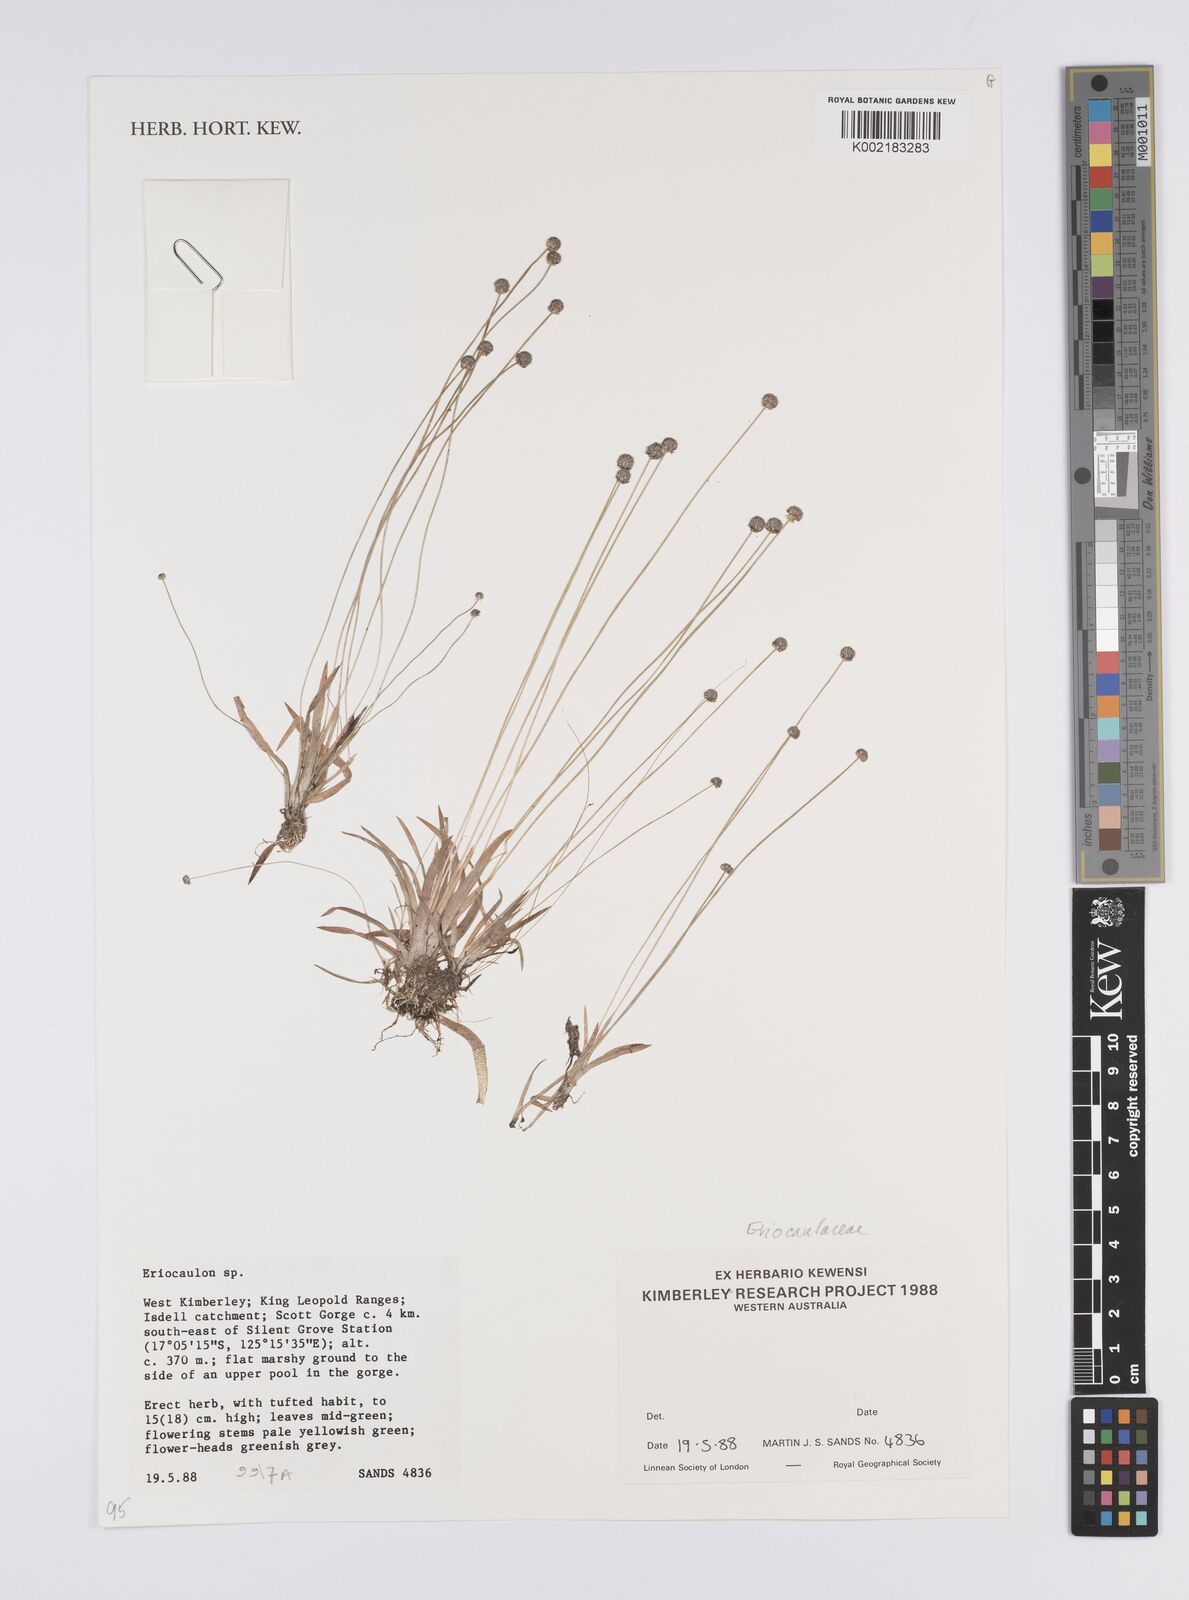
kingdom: Plantae
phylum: Tracheophyta
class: Liliopsida
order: Poales
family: Eriocaulaceae
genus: Eriocaulon
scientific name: Eriocaulon
